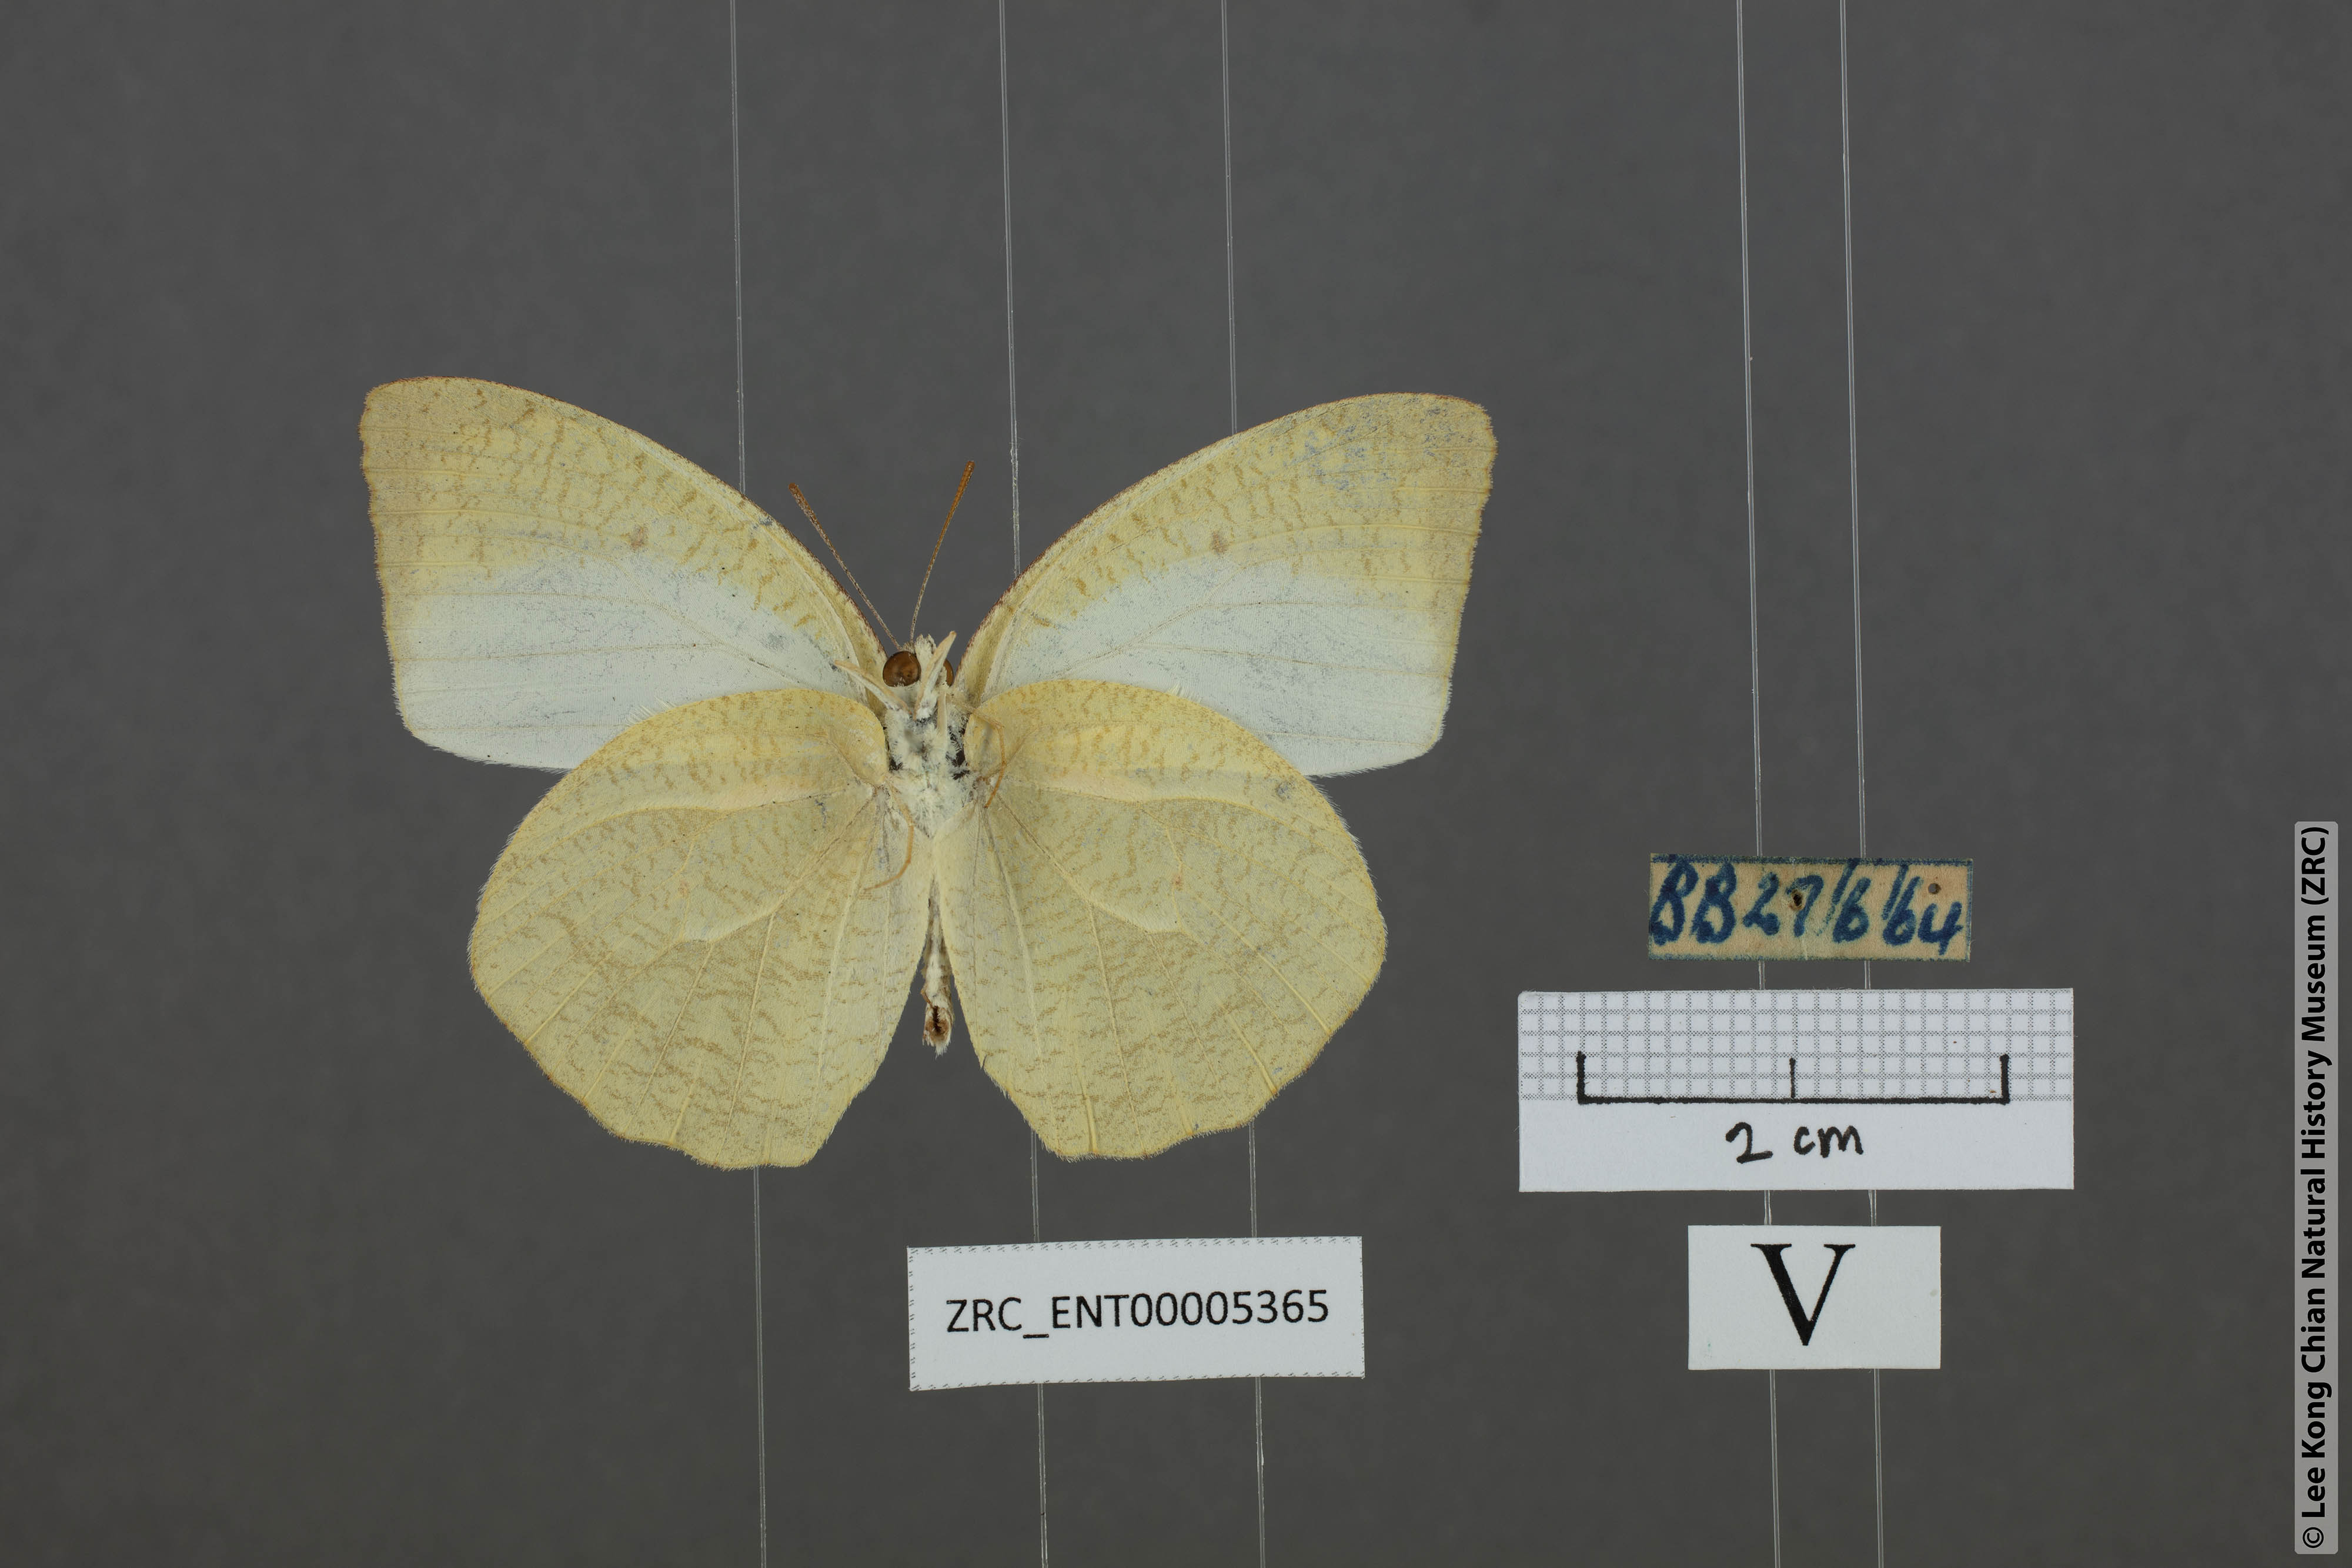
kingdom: Animalia
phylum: Arthropoda
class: Insecta
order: Lepidoptera
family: Pieridae
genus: Catopsilia
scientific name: Catopsilia pyranthe
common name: Mottled emigrant
